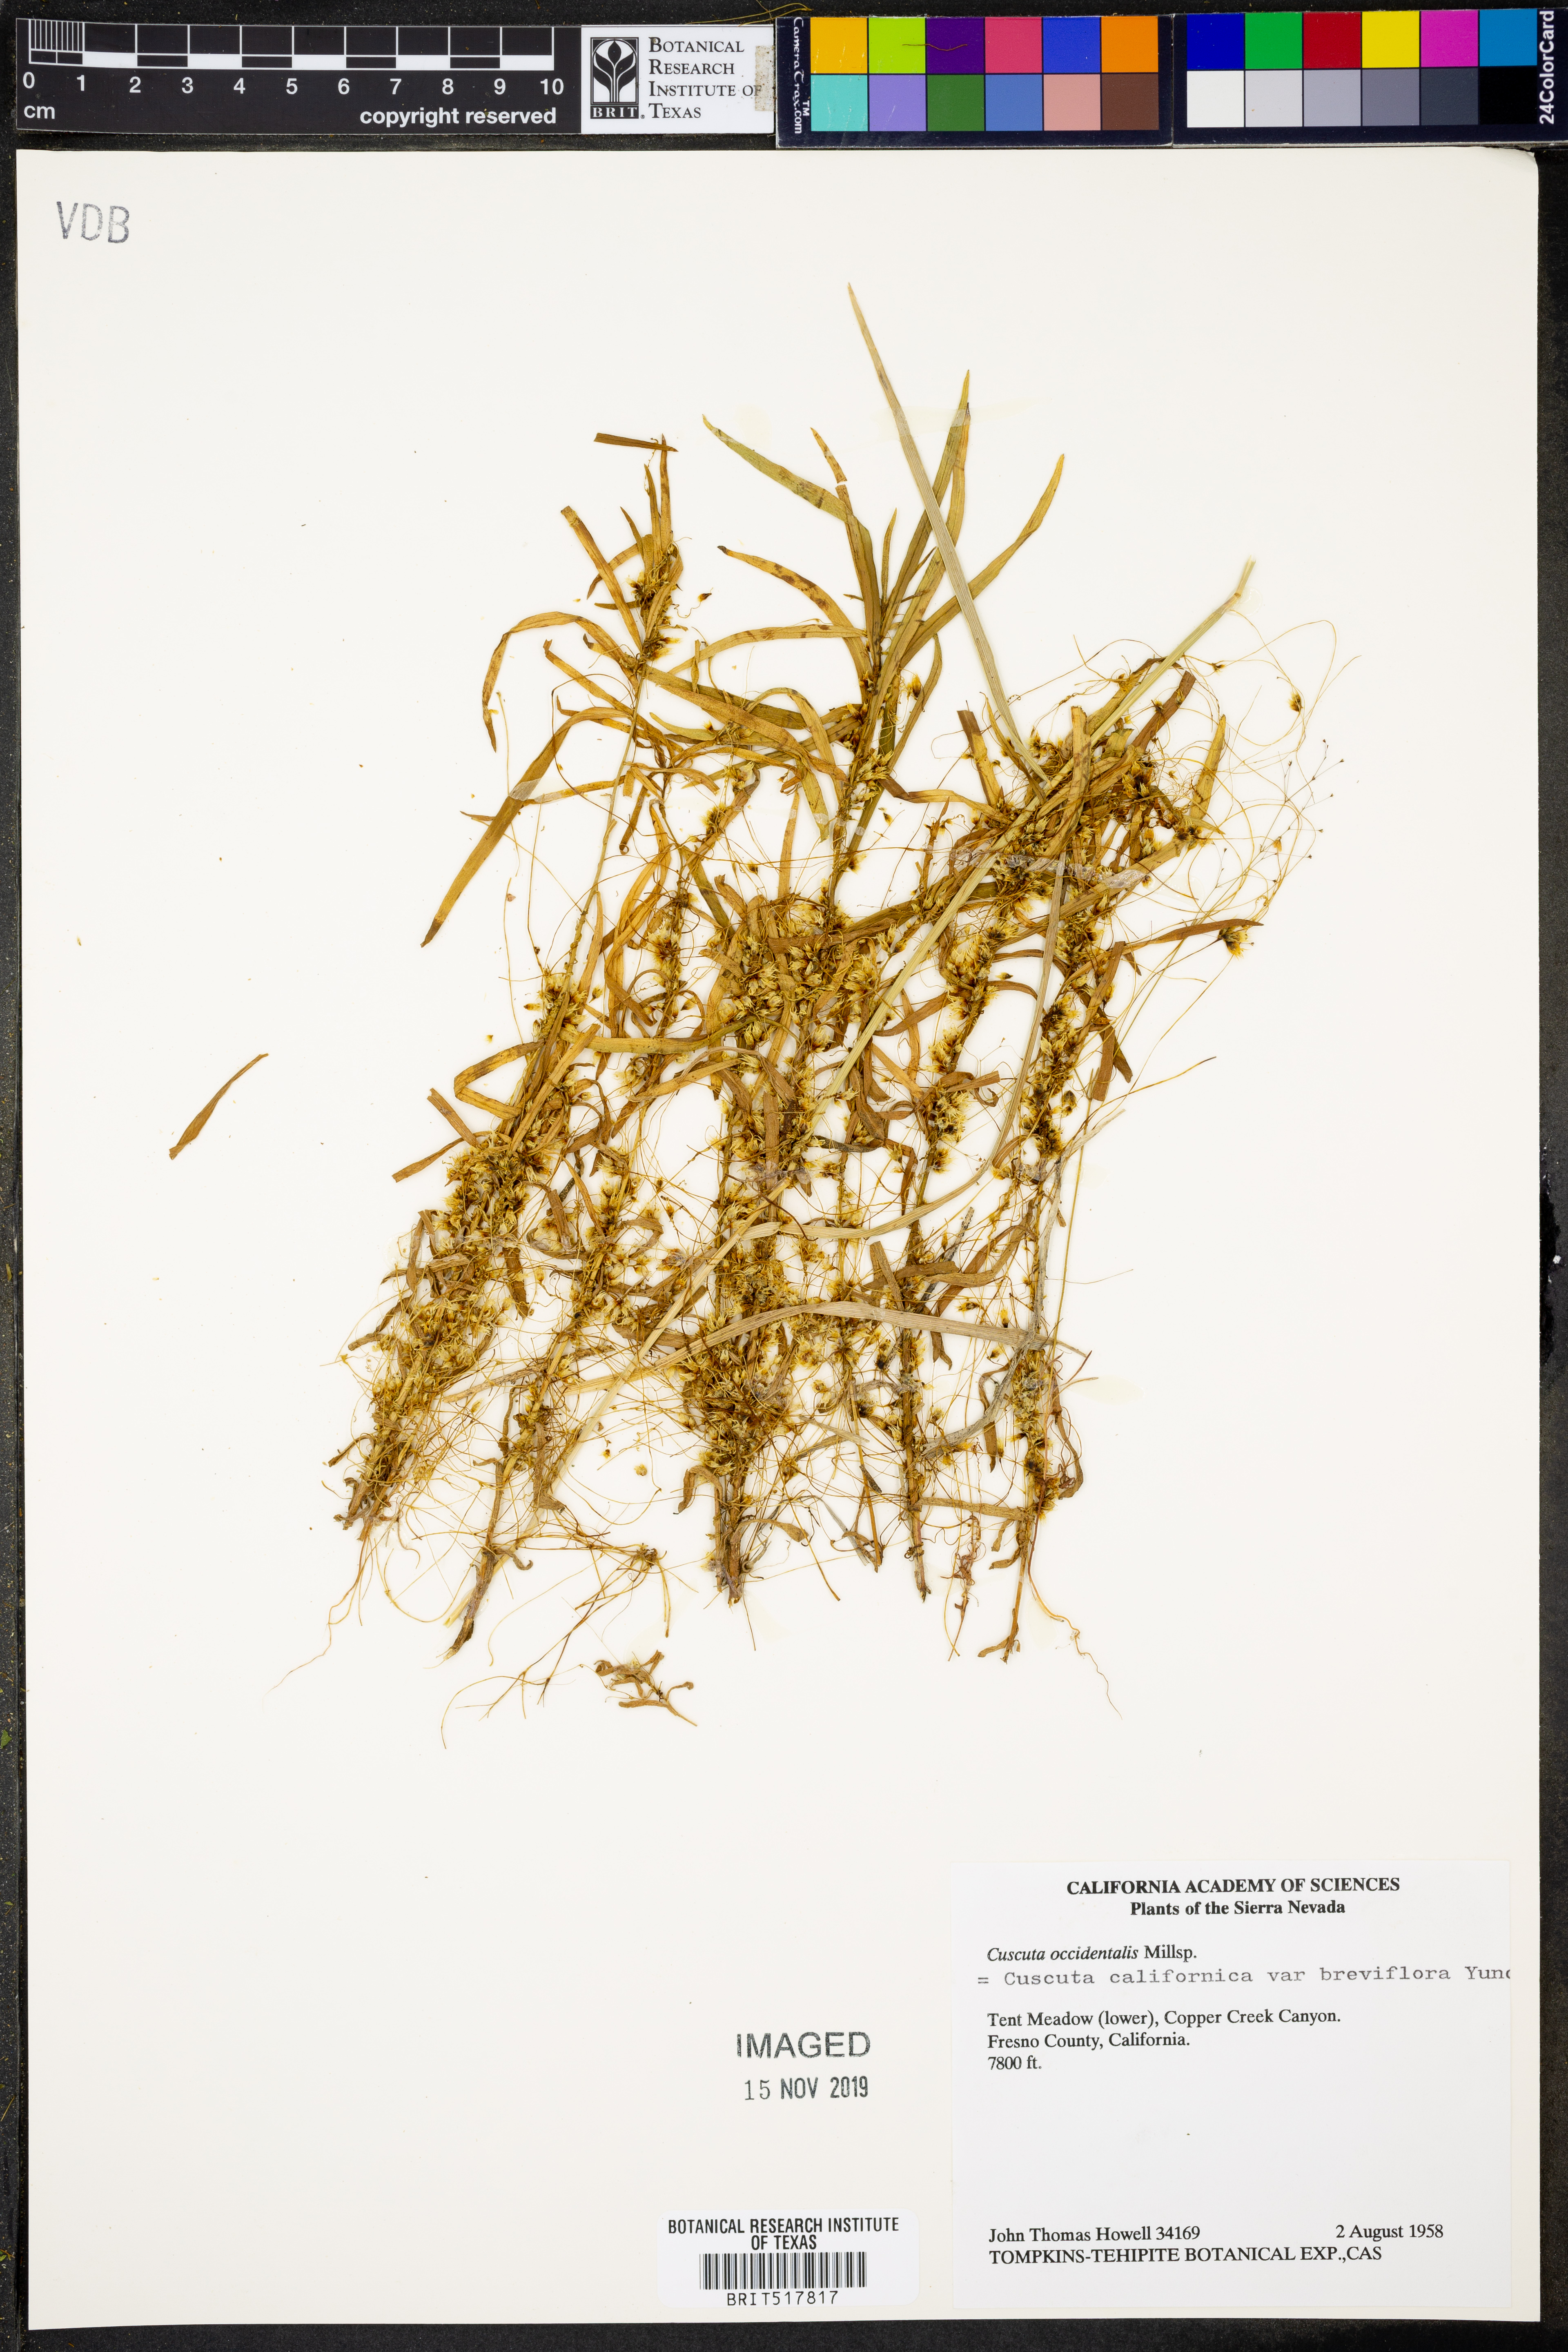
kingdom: Plantae
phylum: Tracheophyta
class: Magnoliopsida
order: Solanales
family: Convolvulaceae
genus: Cuscuta
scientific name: Cuscuta occidentalis
